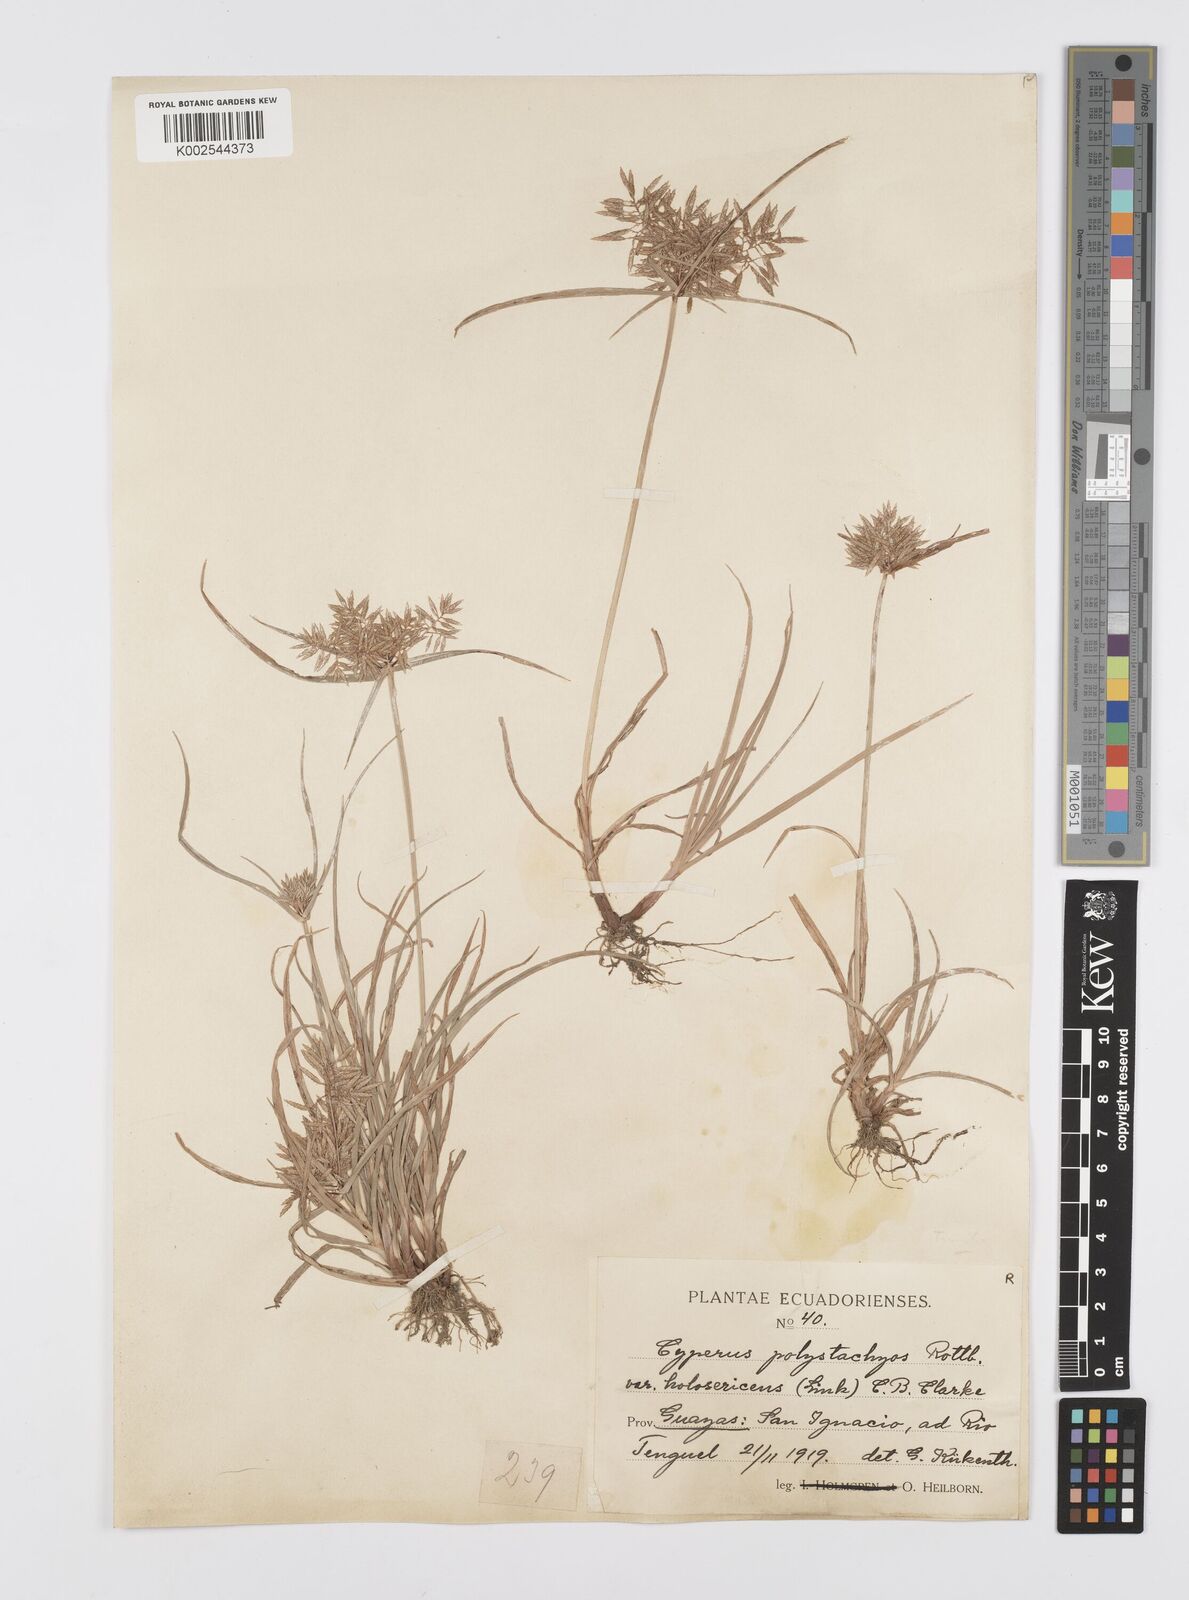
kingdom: Plantae
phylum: Tracheophyta
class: Liliopsida
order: Poales
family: Cyperaceae
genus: Cyperus
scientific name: Cyperus polystachyos
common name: Bunchy flat sedge
